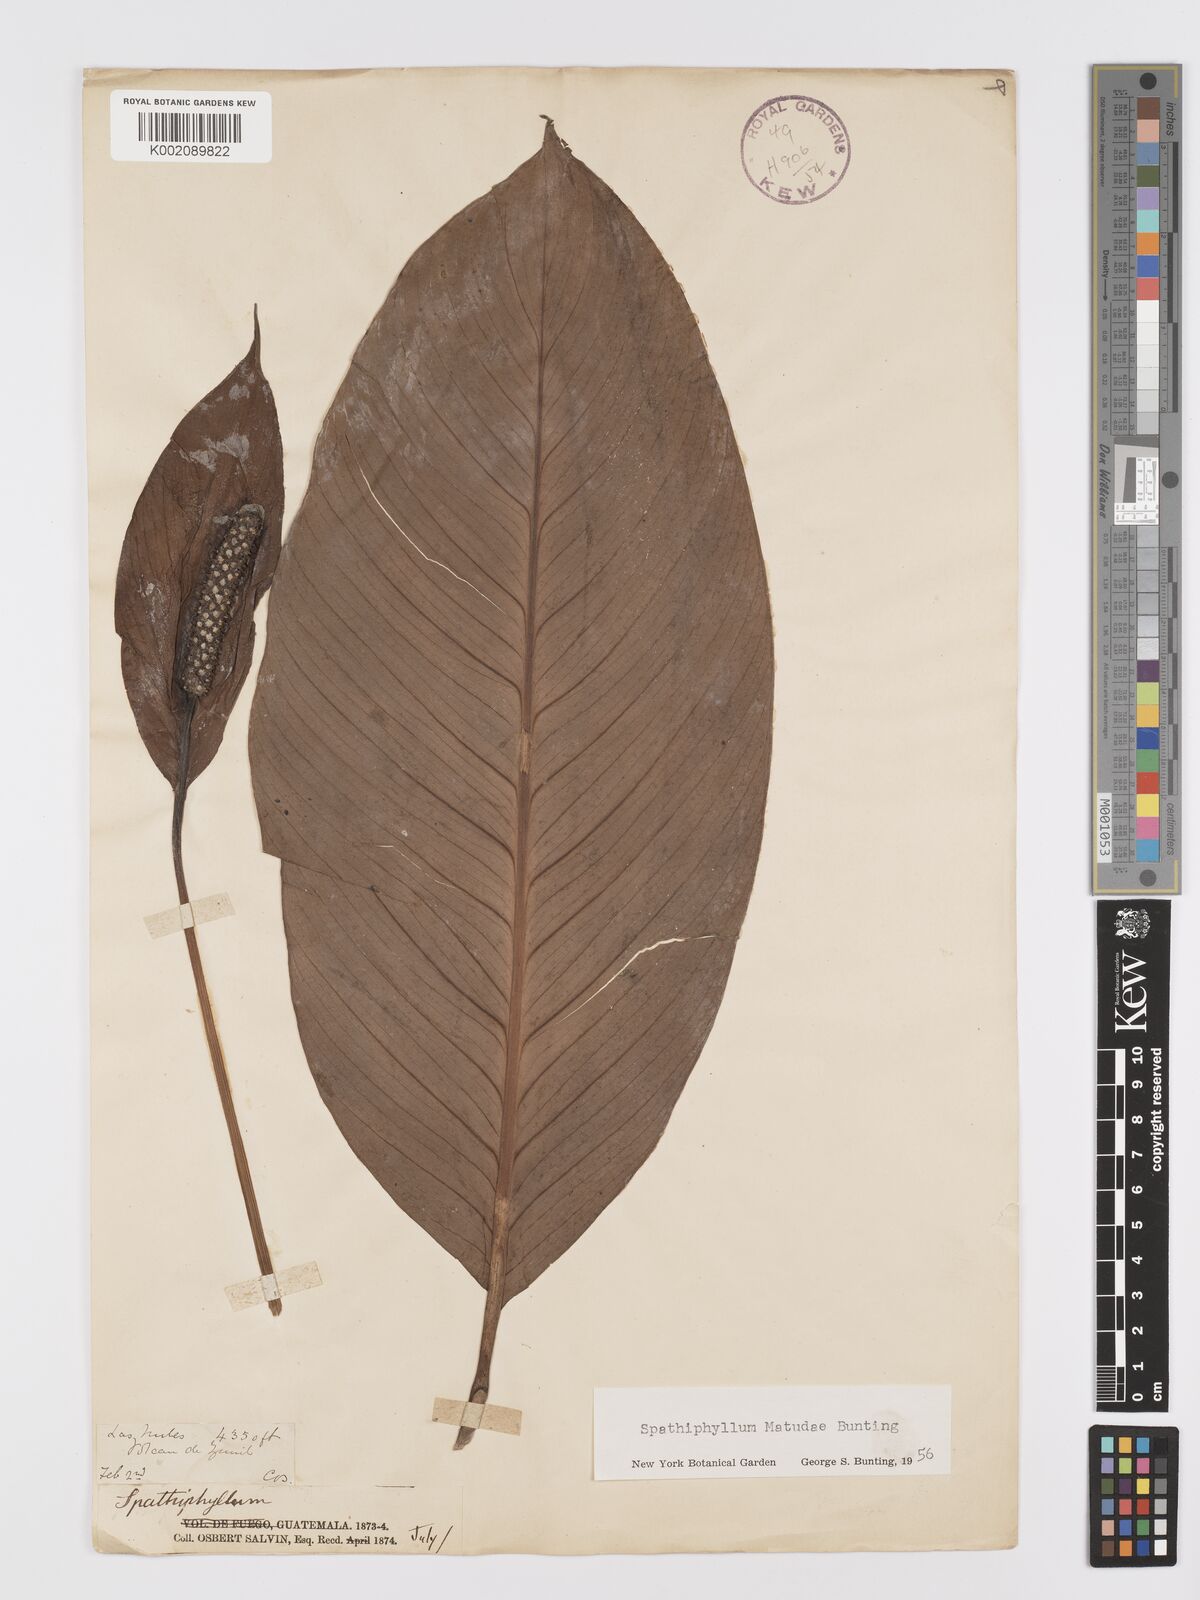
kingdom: Plantae
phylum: Tracheophyta
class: Liliopsida
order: Alismatales
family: Araceae
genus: Spathiphyllum
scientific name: Spathiphyllum matudae
